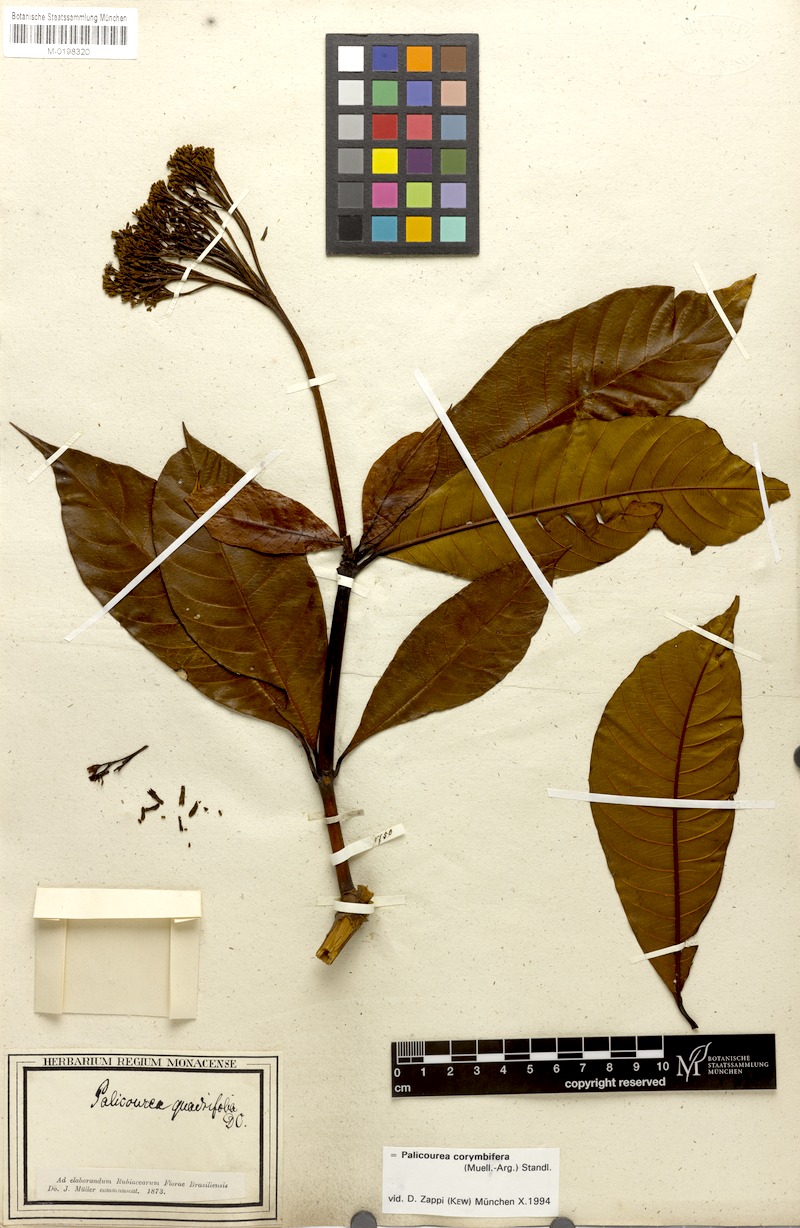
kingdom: Plantae
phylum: Tracheophyta
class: Magnoliopsida
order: Gentianales
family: Rubiaceae
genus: Palicourea
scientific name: Palicourea corymbifera
